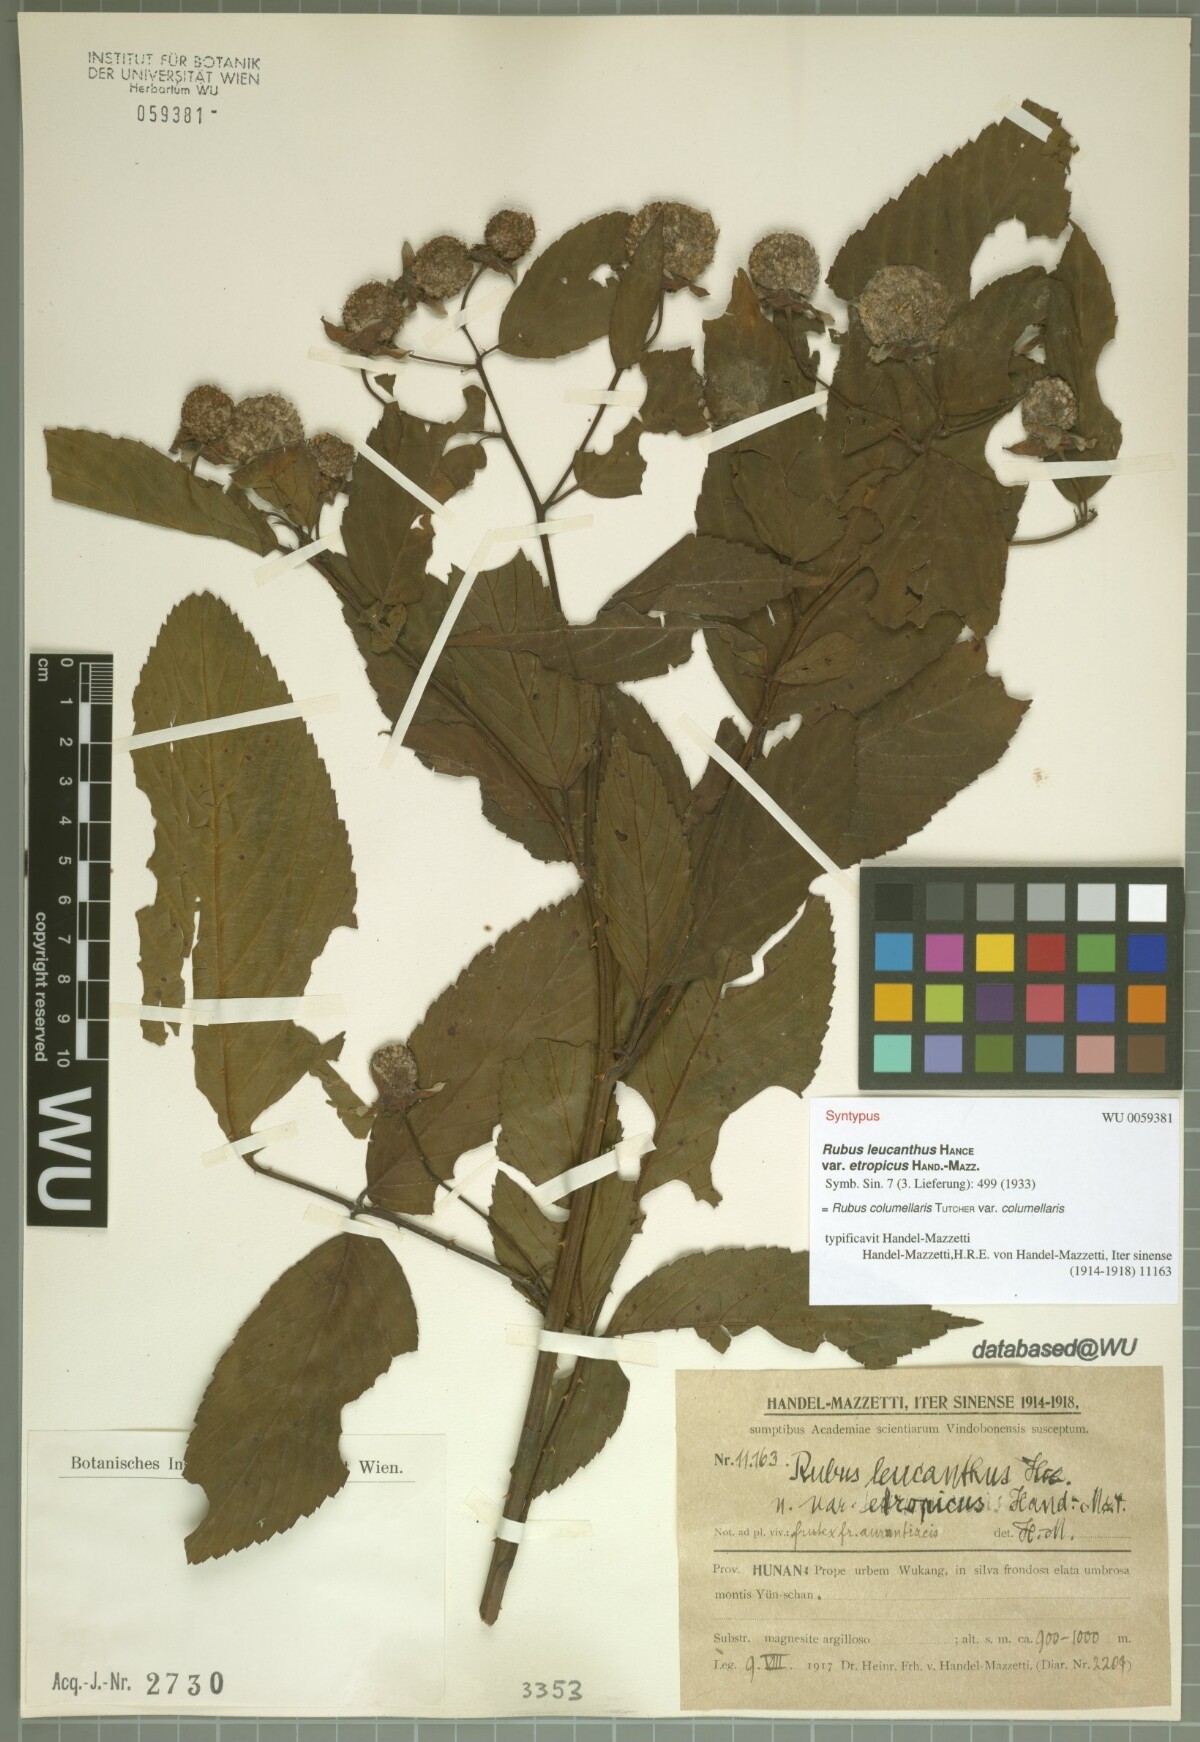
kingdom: Plantae
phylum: Tracheophyta
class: Magnoliopsida
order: Rosales
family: Rosaceae
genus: Rubus
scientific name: Rubus columellaris
